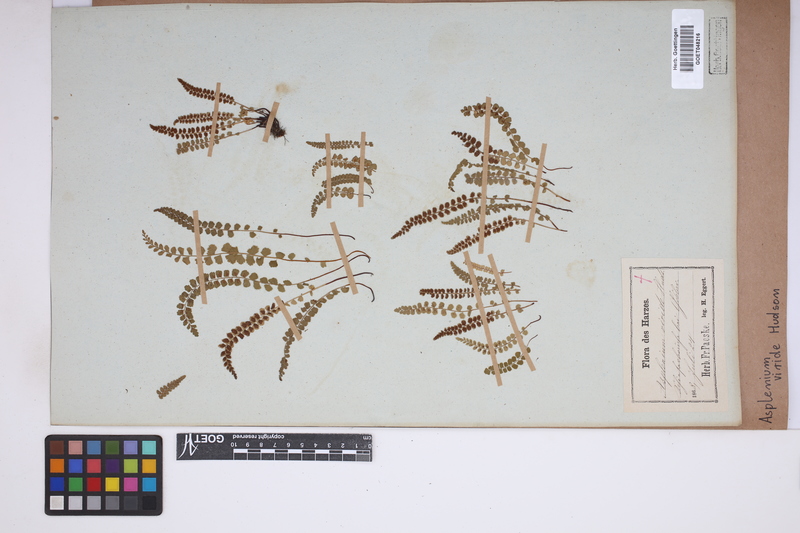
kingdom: Plantae
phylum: Tracheophyta
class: Polypodiopsida
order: Polypodiales
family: Aspleniaceae
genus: Asplenium
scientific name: Asplenium viride
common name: Green spleenwort
